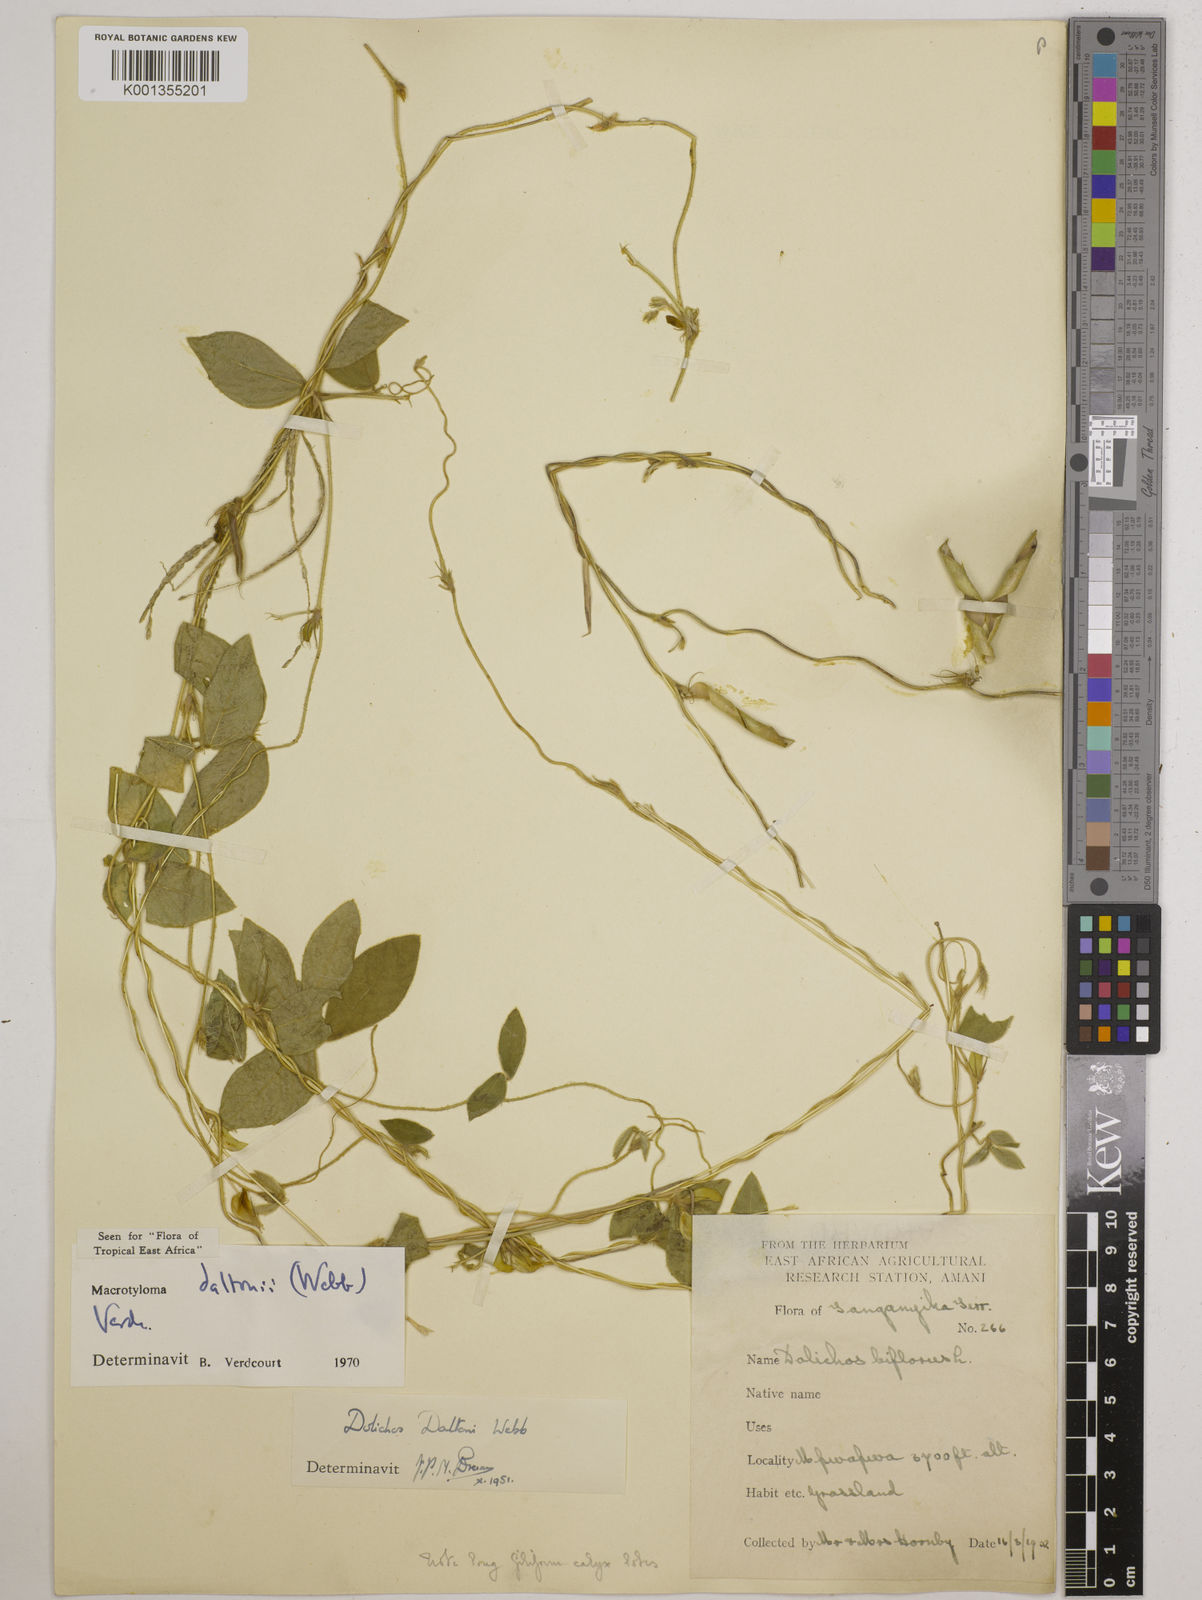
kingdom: Plantae
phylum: Tracheophyta
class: Magnoliopsida
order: Fabales
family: Fabaceae
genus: Macrotyloma
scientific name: Macrotyloma daltonii
